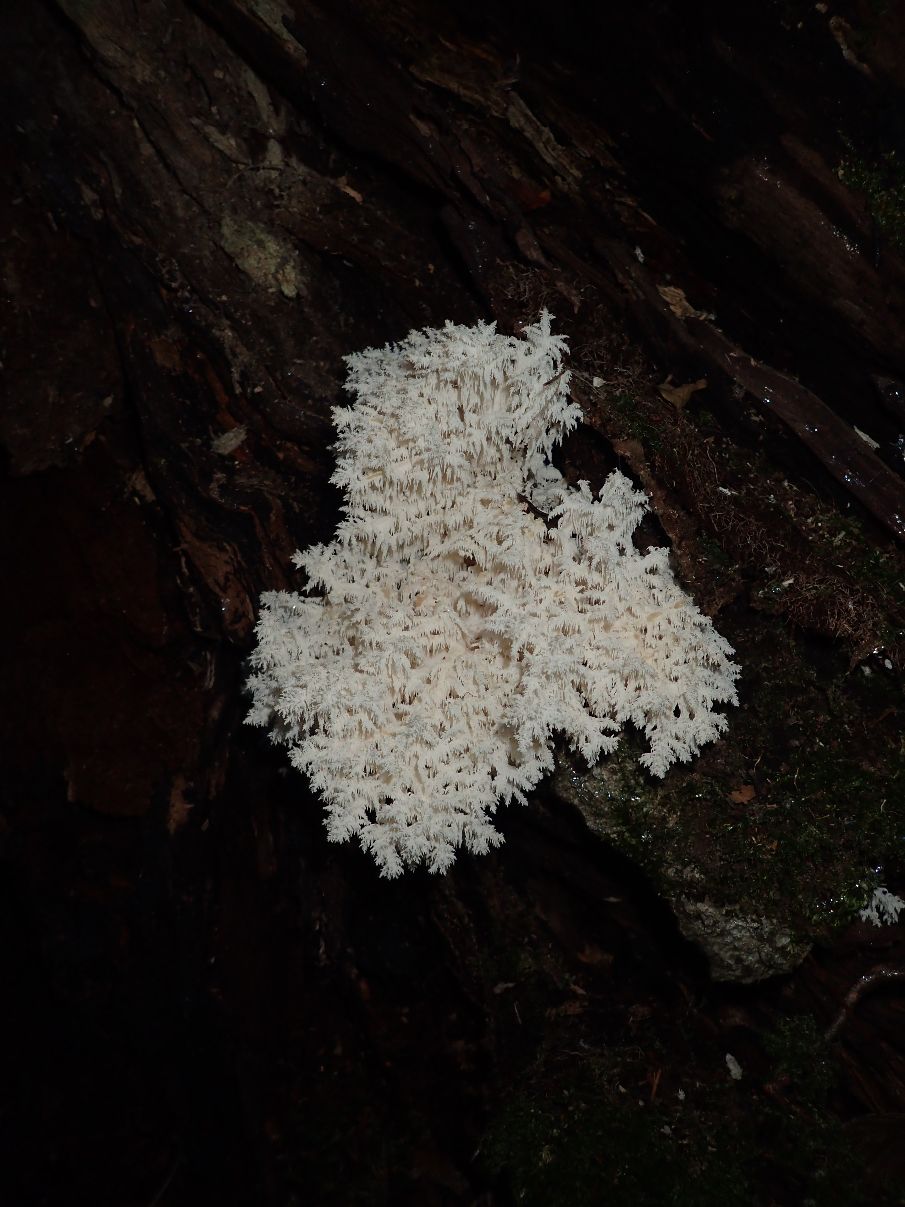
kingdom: Fungi
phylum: Basidiomycota
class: Agaricomycetes
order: Russulales
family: Hericiaceae
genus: Hericium
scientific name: Hericium coralloides
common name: koralpigsvamp
